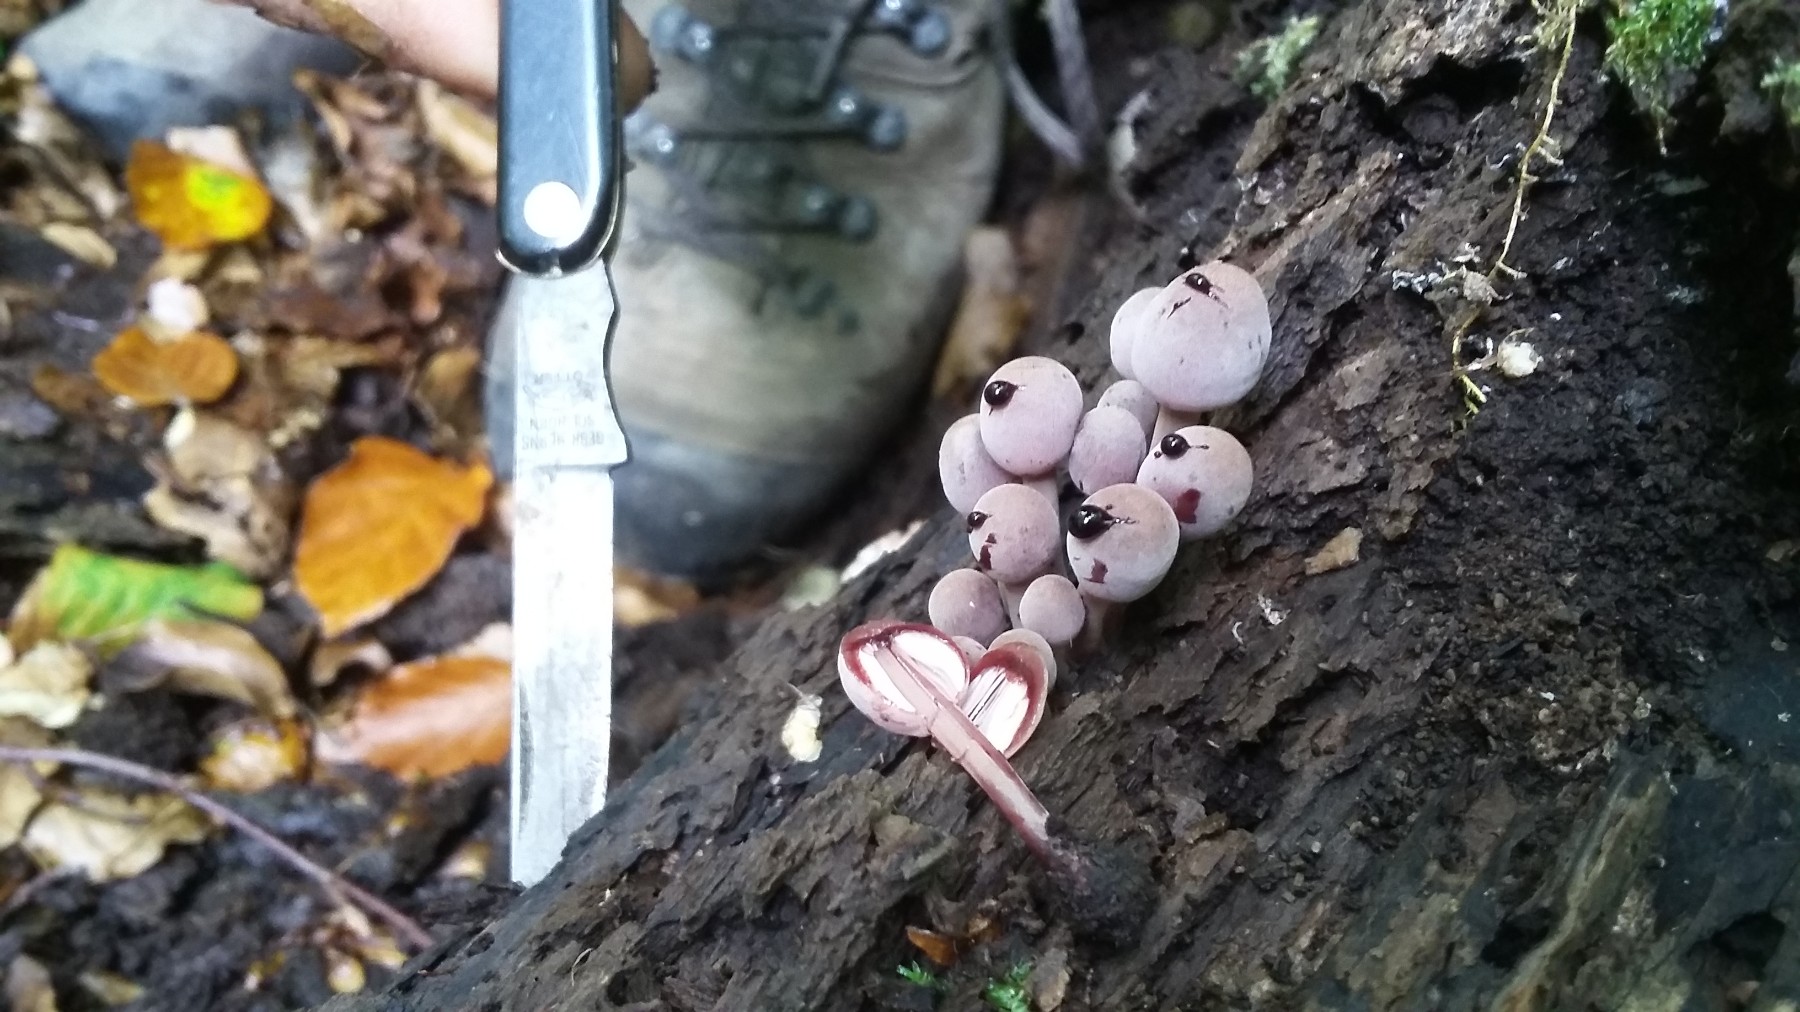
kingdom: Fungi
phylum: Basidiomycota
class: Agaricomycetes
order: Agaricales
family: Mycenaceae
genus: Mycena
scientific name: Mycena haematopus
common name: blødende huesvamp
